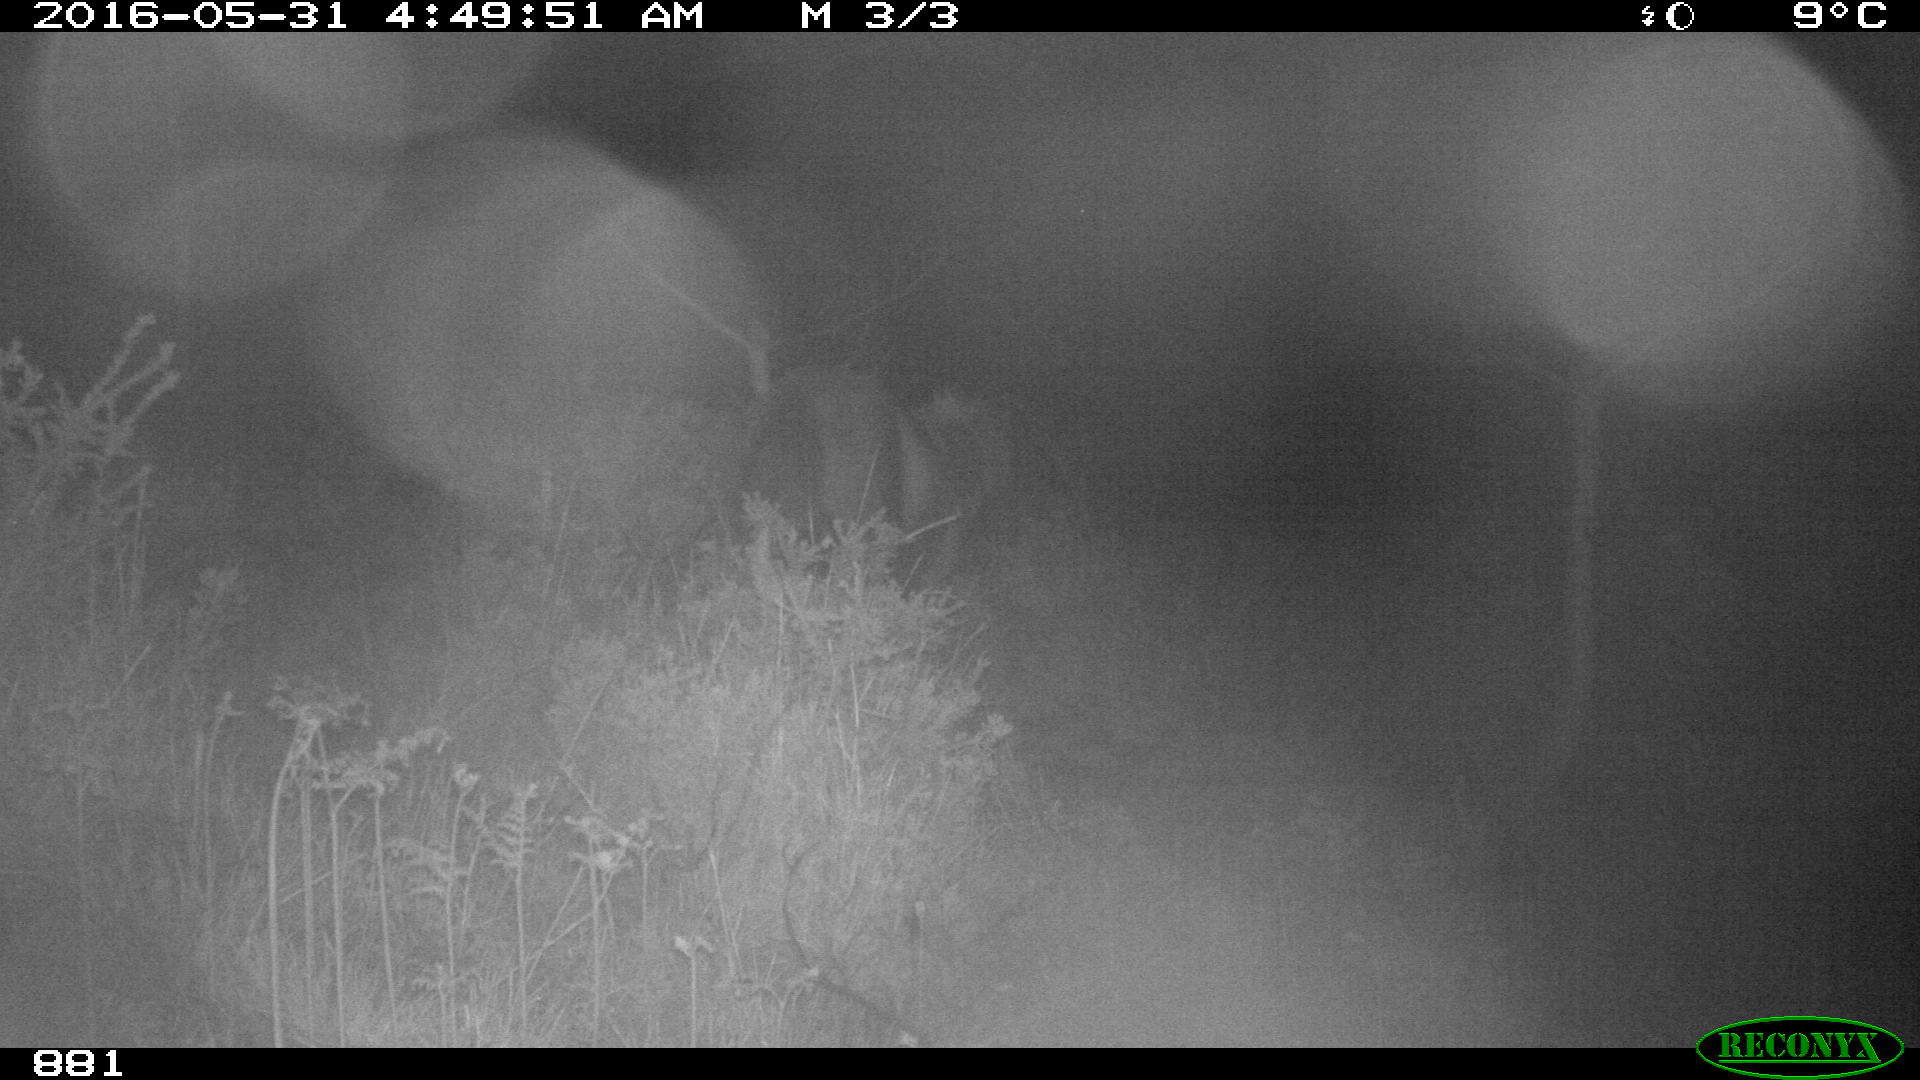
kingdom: Animalia
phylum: Chordata
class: Mammalia
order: Perissodactyla
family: Equidae
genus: Equus
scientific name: Equus caballus
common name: Horse
